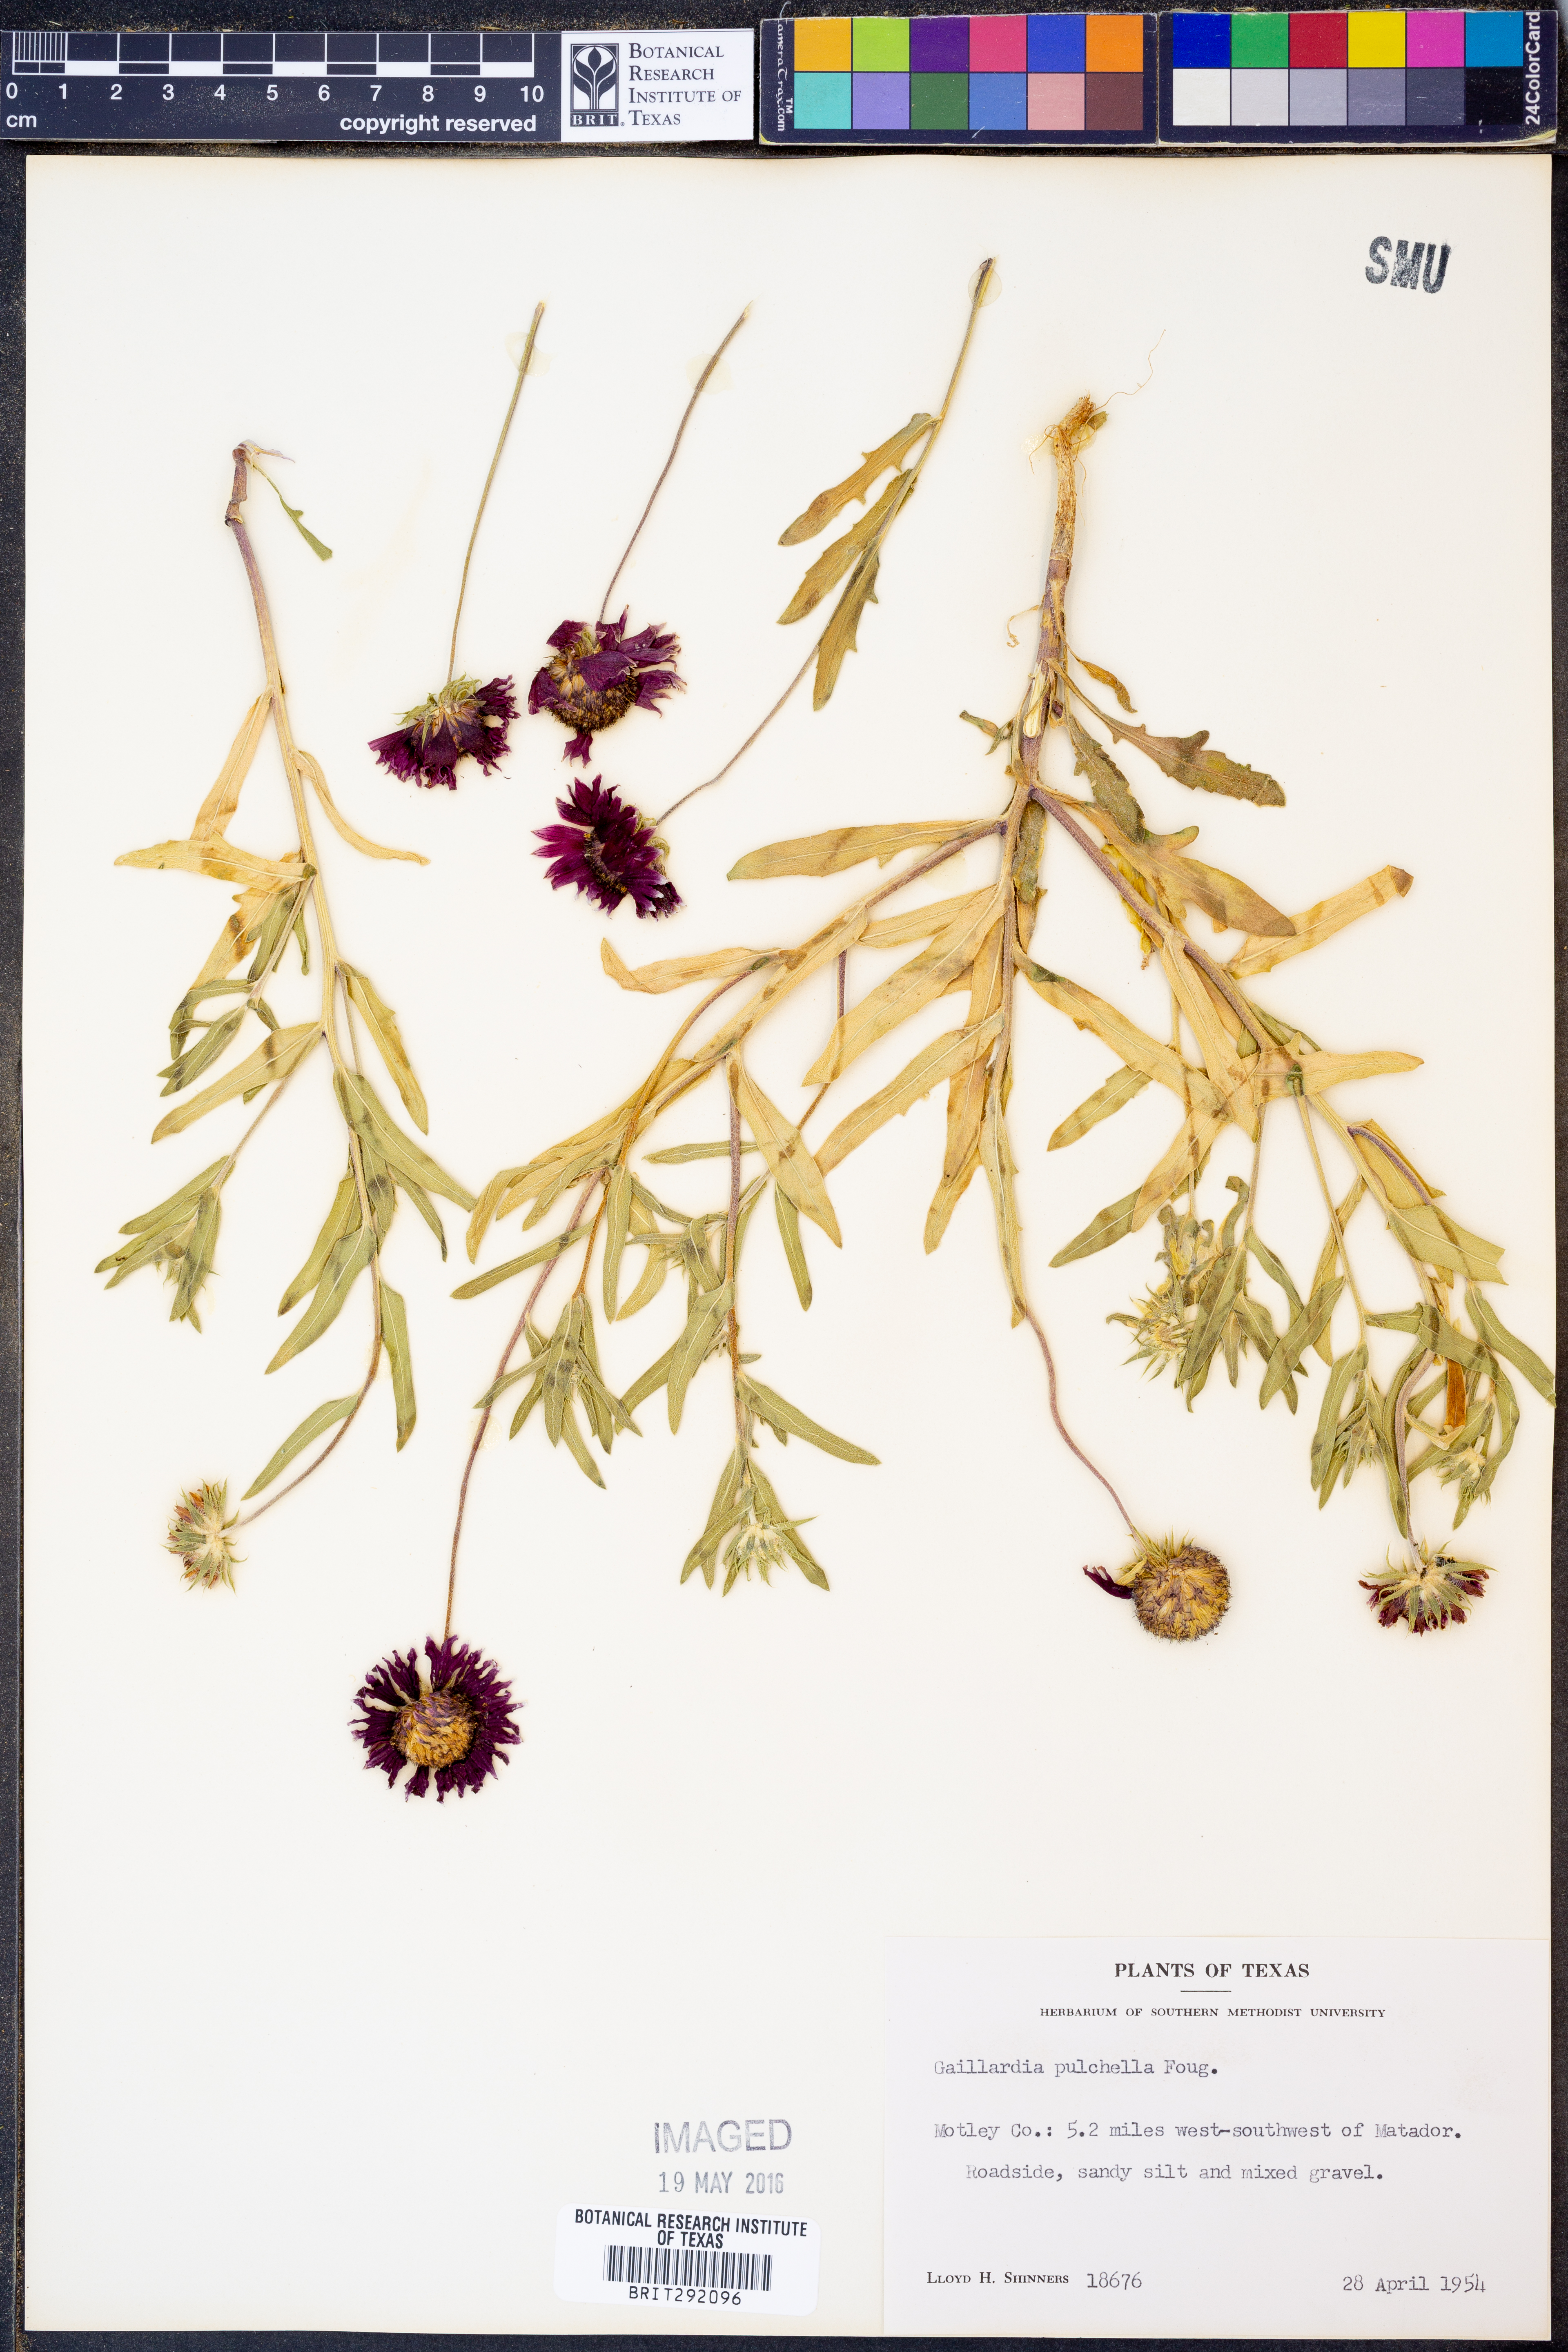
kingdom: Plantae
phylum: Tracheophyta
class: Magnoliopsida
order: Asterales
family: Asteraceae
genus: Gaillardia
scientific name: Gaillardia pulchella
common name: Firewheel
